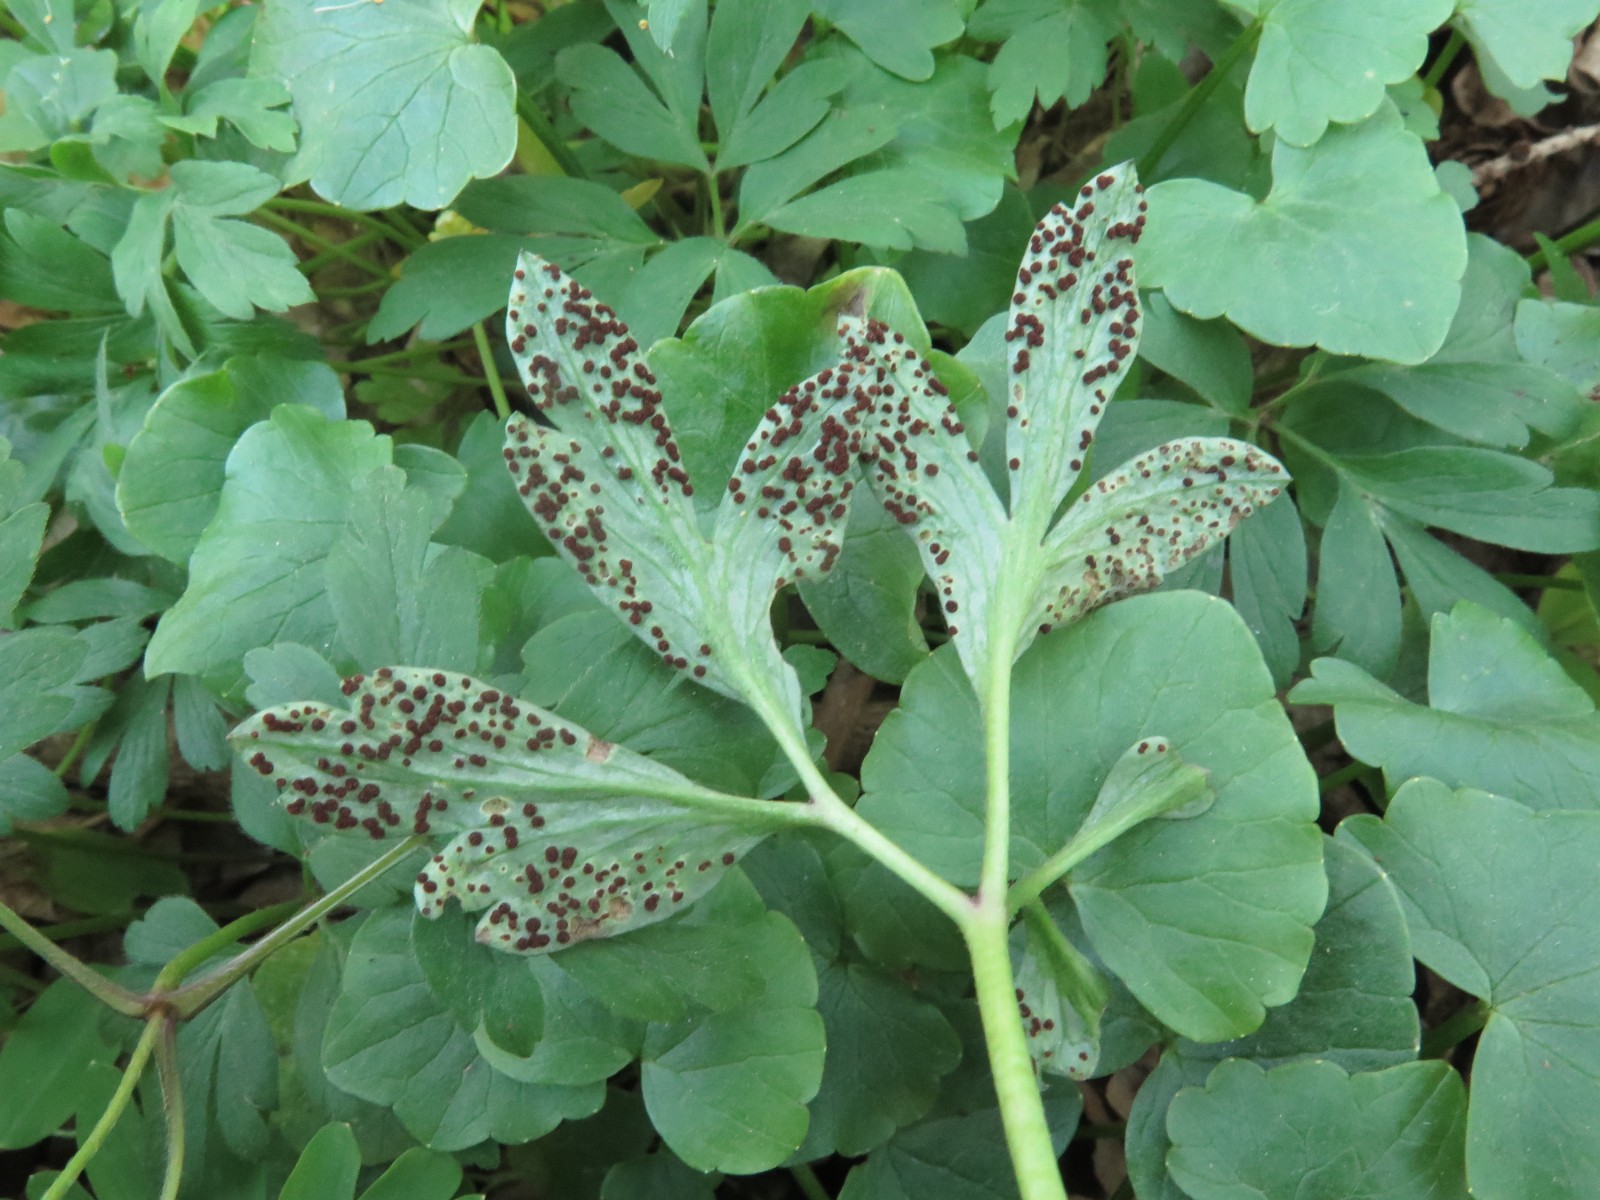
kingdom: Fungi
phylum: Basidiomycota
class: Pucciniomycetes
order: Pucciniales
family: Tranzscheliaceae
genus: Tranzschelia
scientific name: Tranzschelia anemones
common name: anemone-knæksporerust
